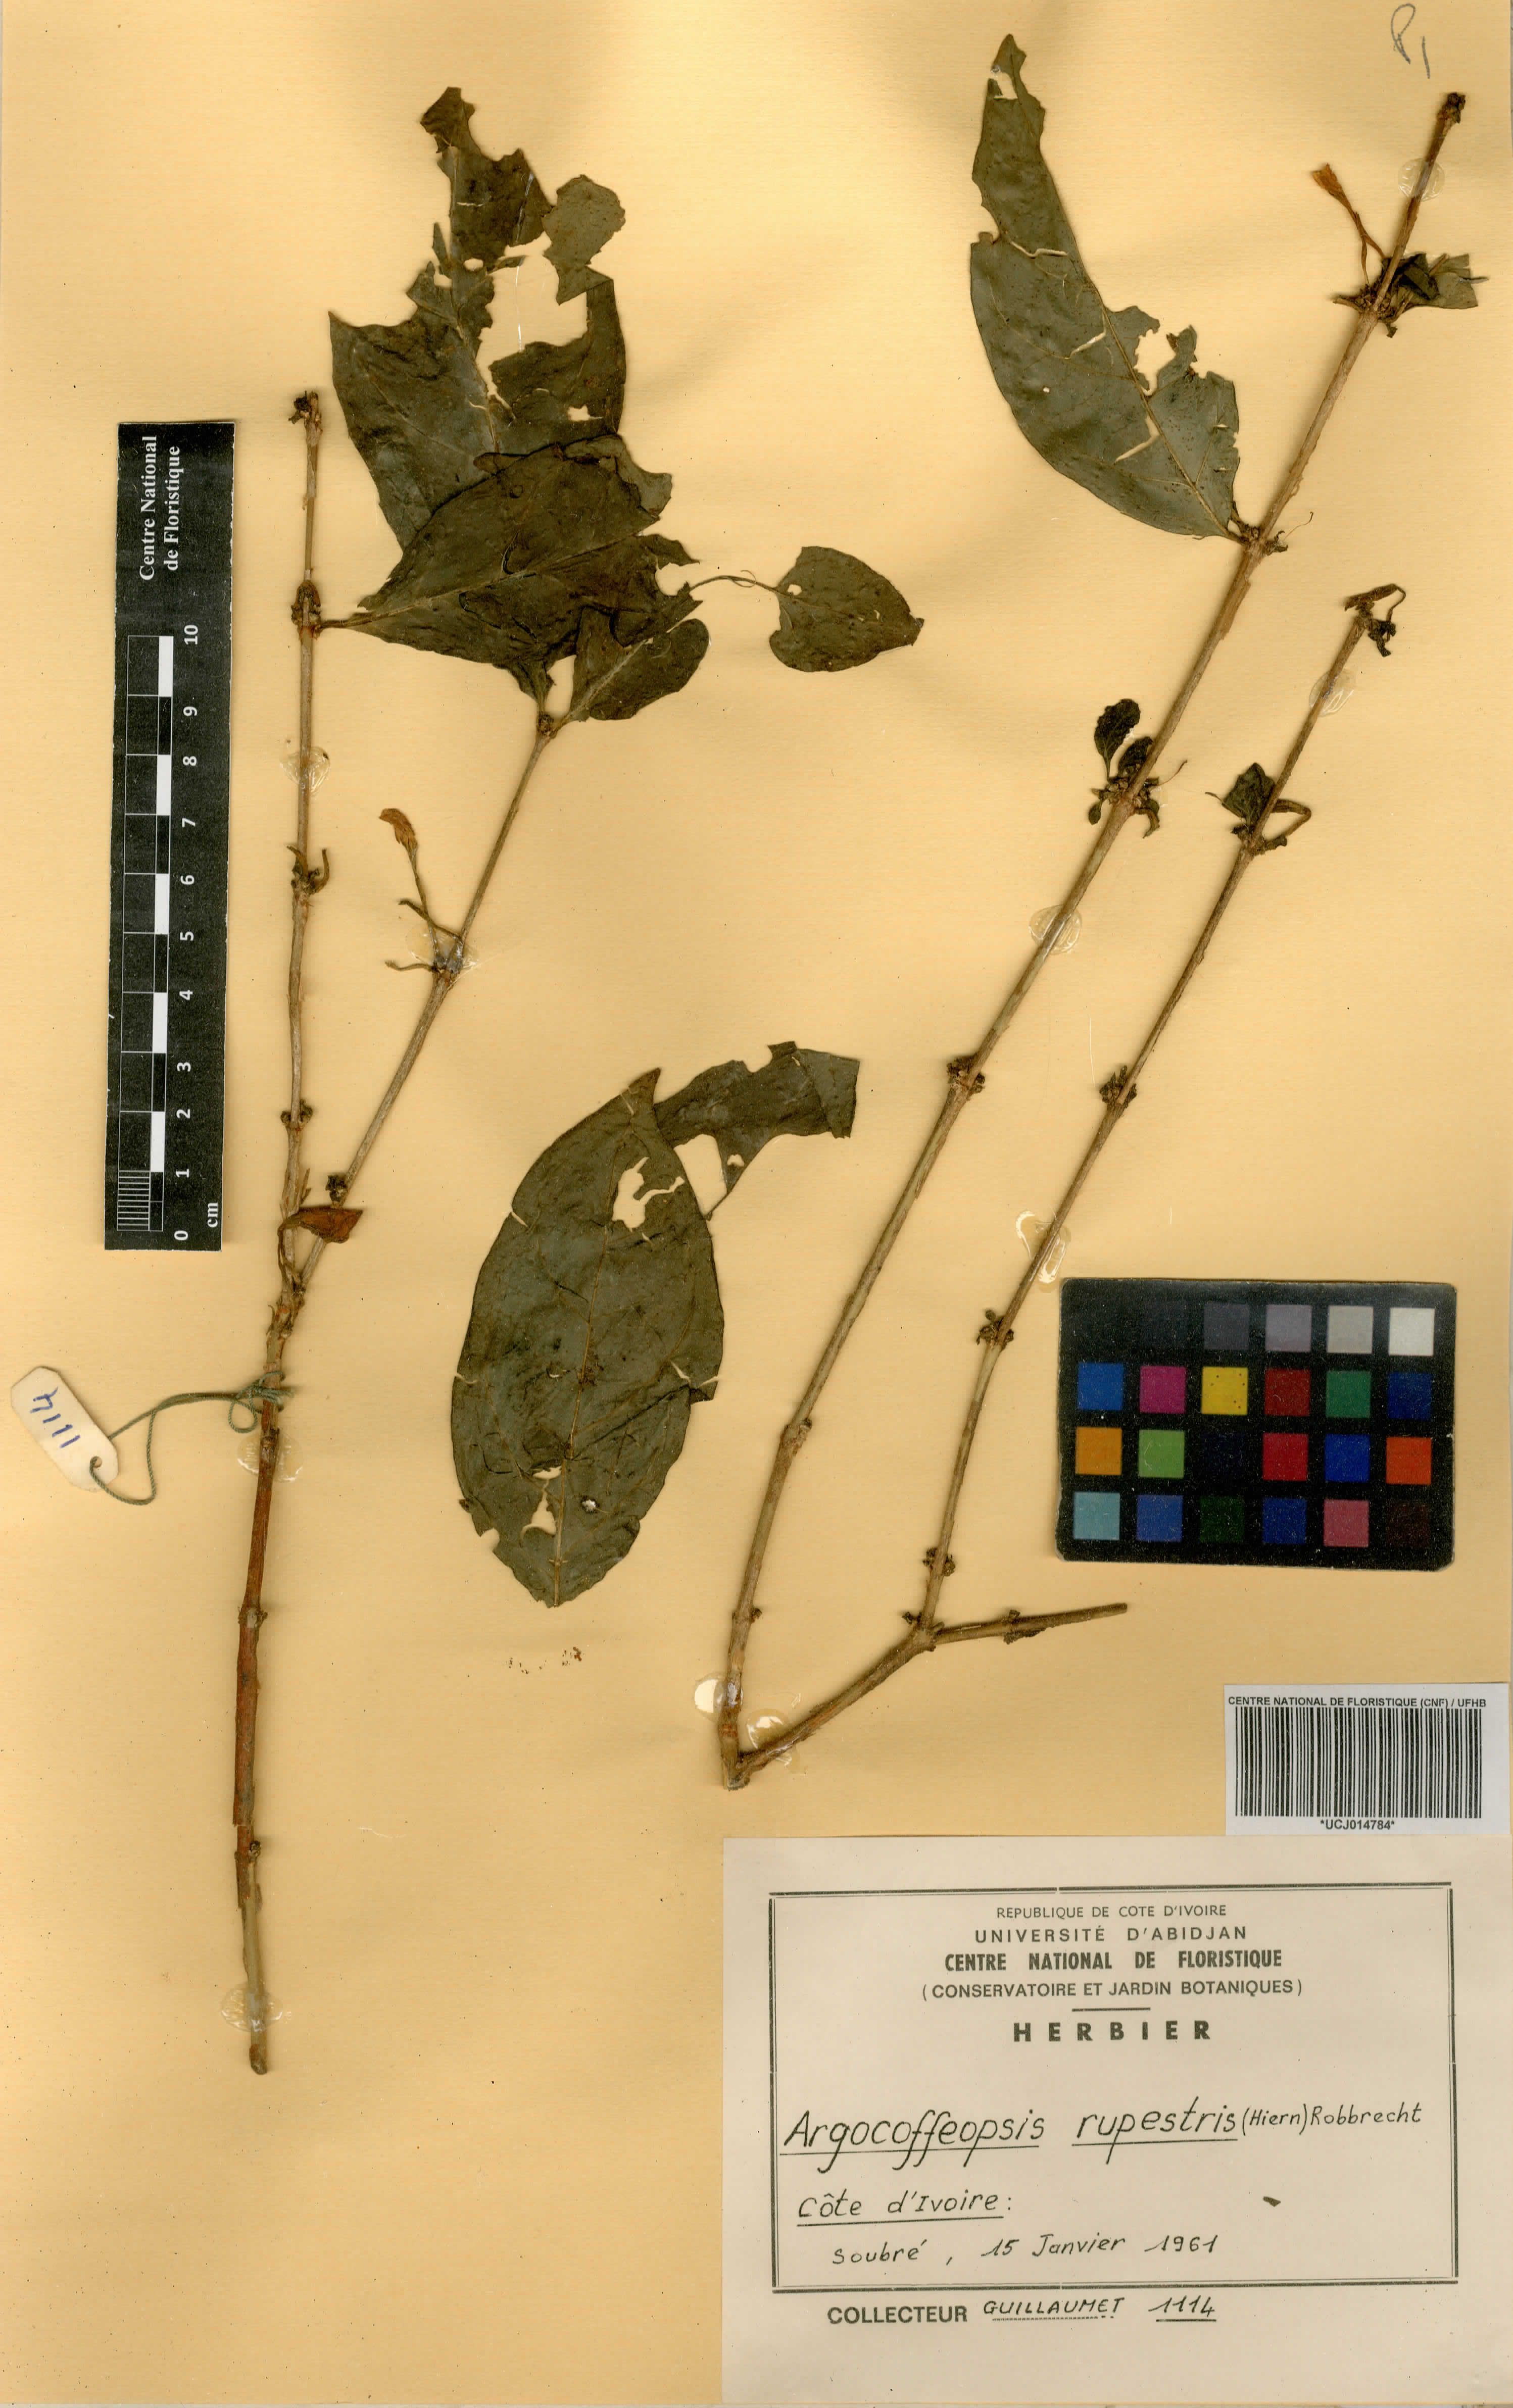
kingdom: Plantae
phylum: Tracheophyta
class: Magnoliopsida
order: Gentianales
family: Rubiaceae
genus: Argocoffeopsis
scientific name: Argocoffeopsis rupestris
